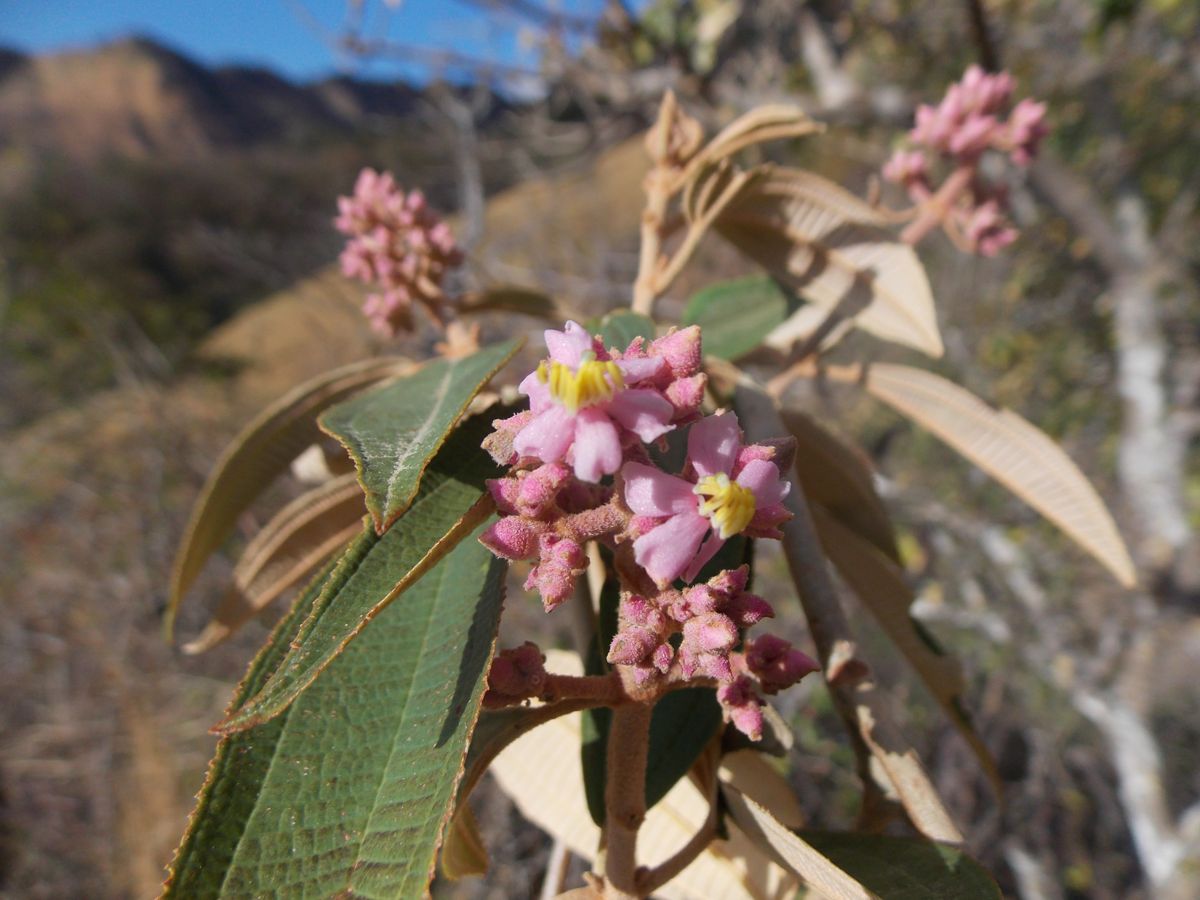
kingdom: Plantae
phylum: Tracheophyta
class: Magnoliopsida
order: Myrtales
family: Melastomataceae
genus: Miconia
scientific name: Miconia xalapensis
